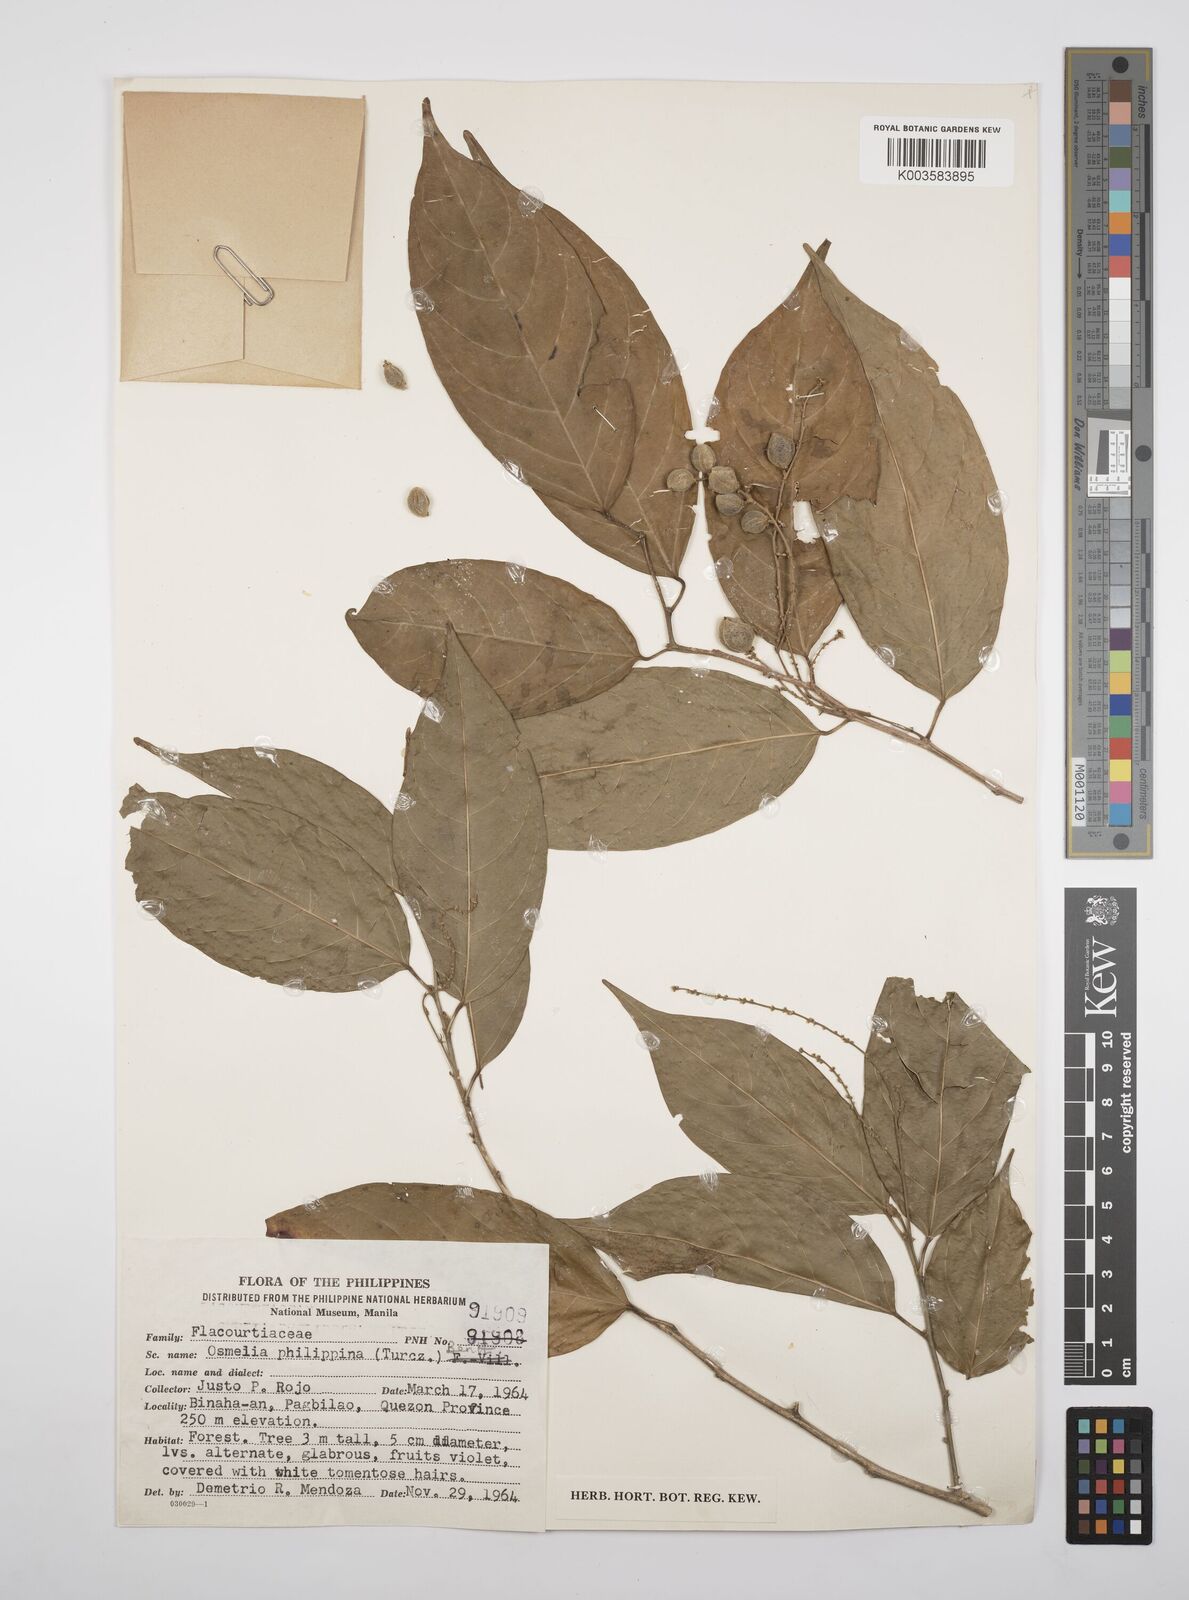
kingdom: Plantae
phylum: Tracheophyta
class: Magnoliopsida
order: Malpighiales
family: Salicaceae
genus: Osmelia
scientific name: Osmelia philippina
